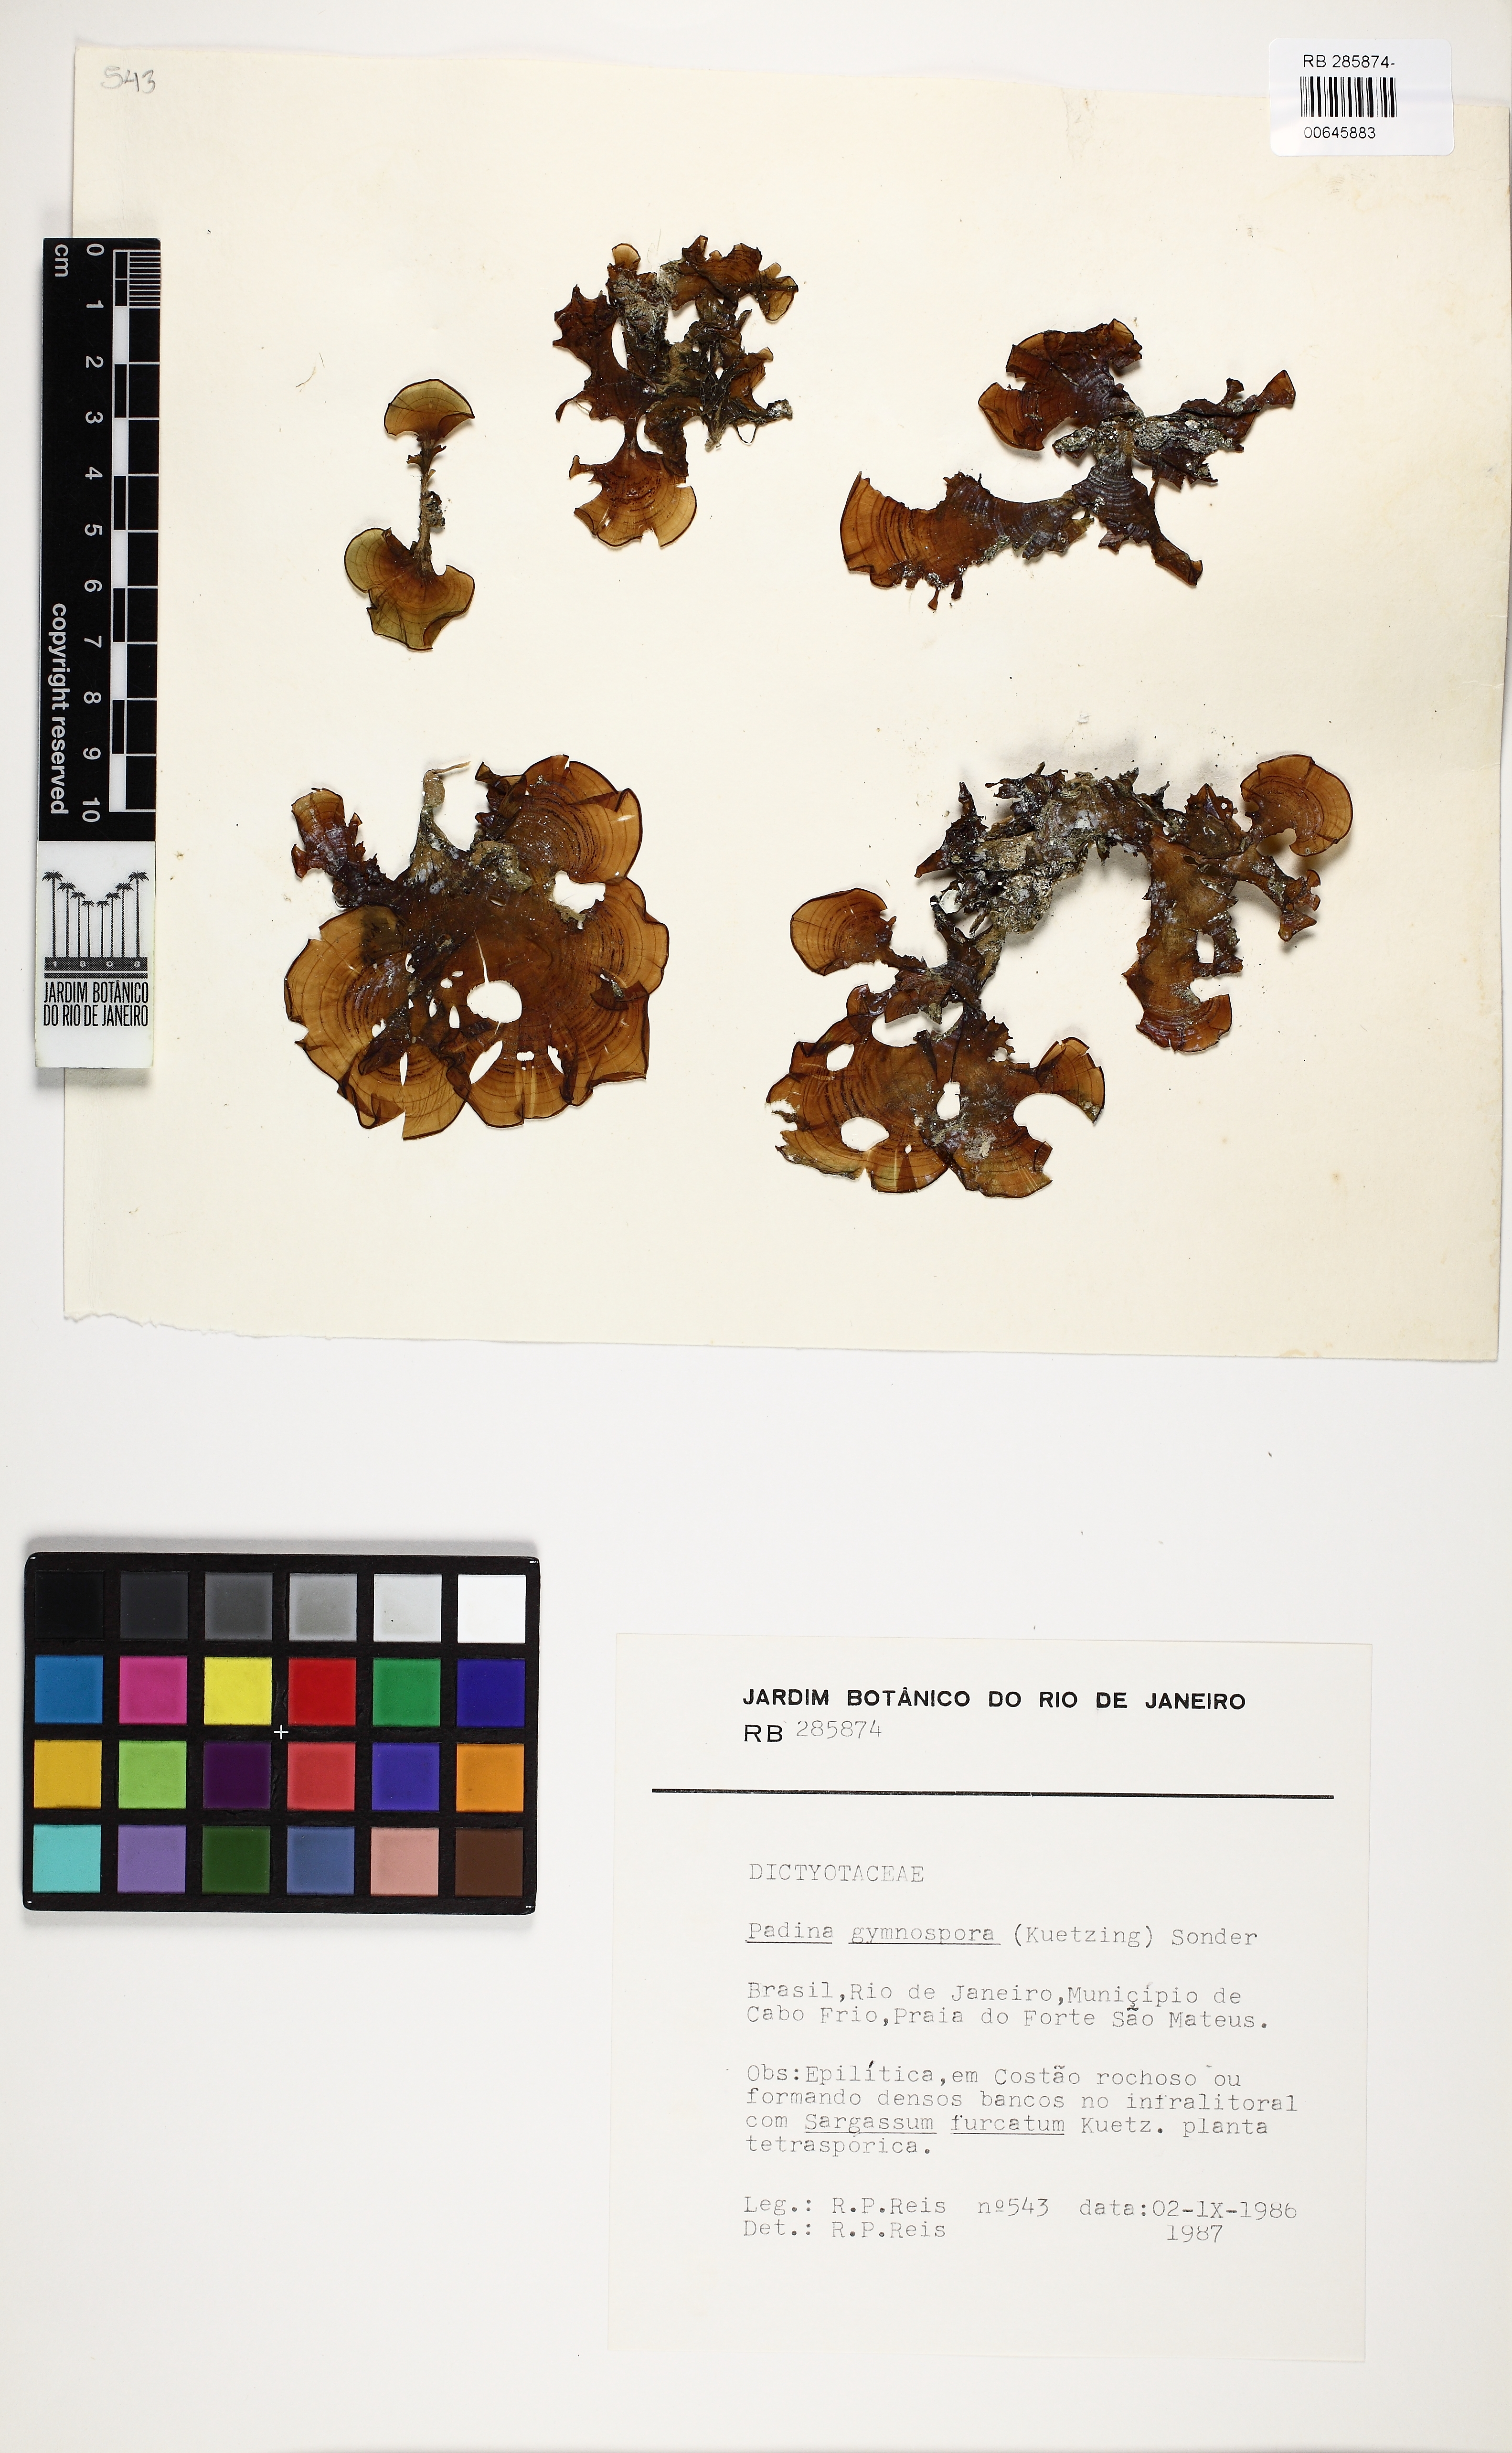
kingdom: Chromista
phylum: Ochrophyta
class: Phaeophyceae
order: Dictyotales
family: Dictyotaceae
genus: Padina
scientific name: Padina gymnospora
